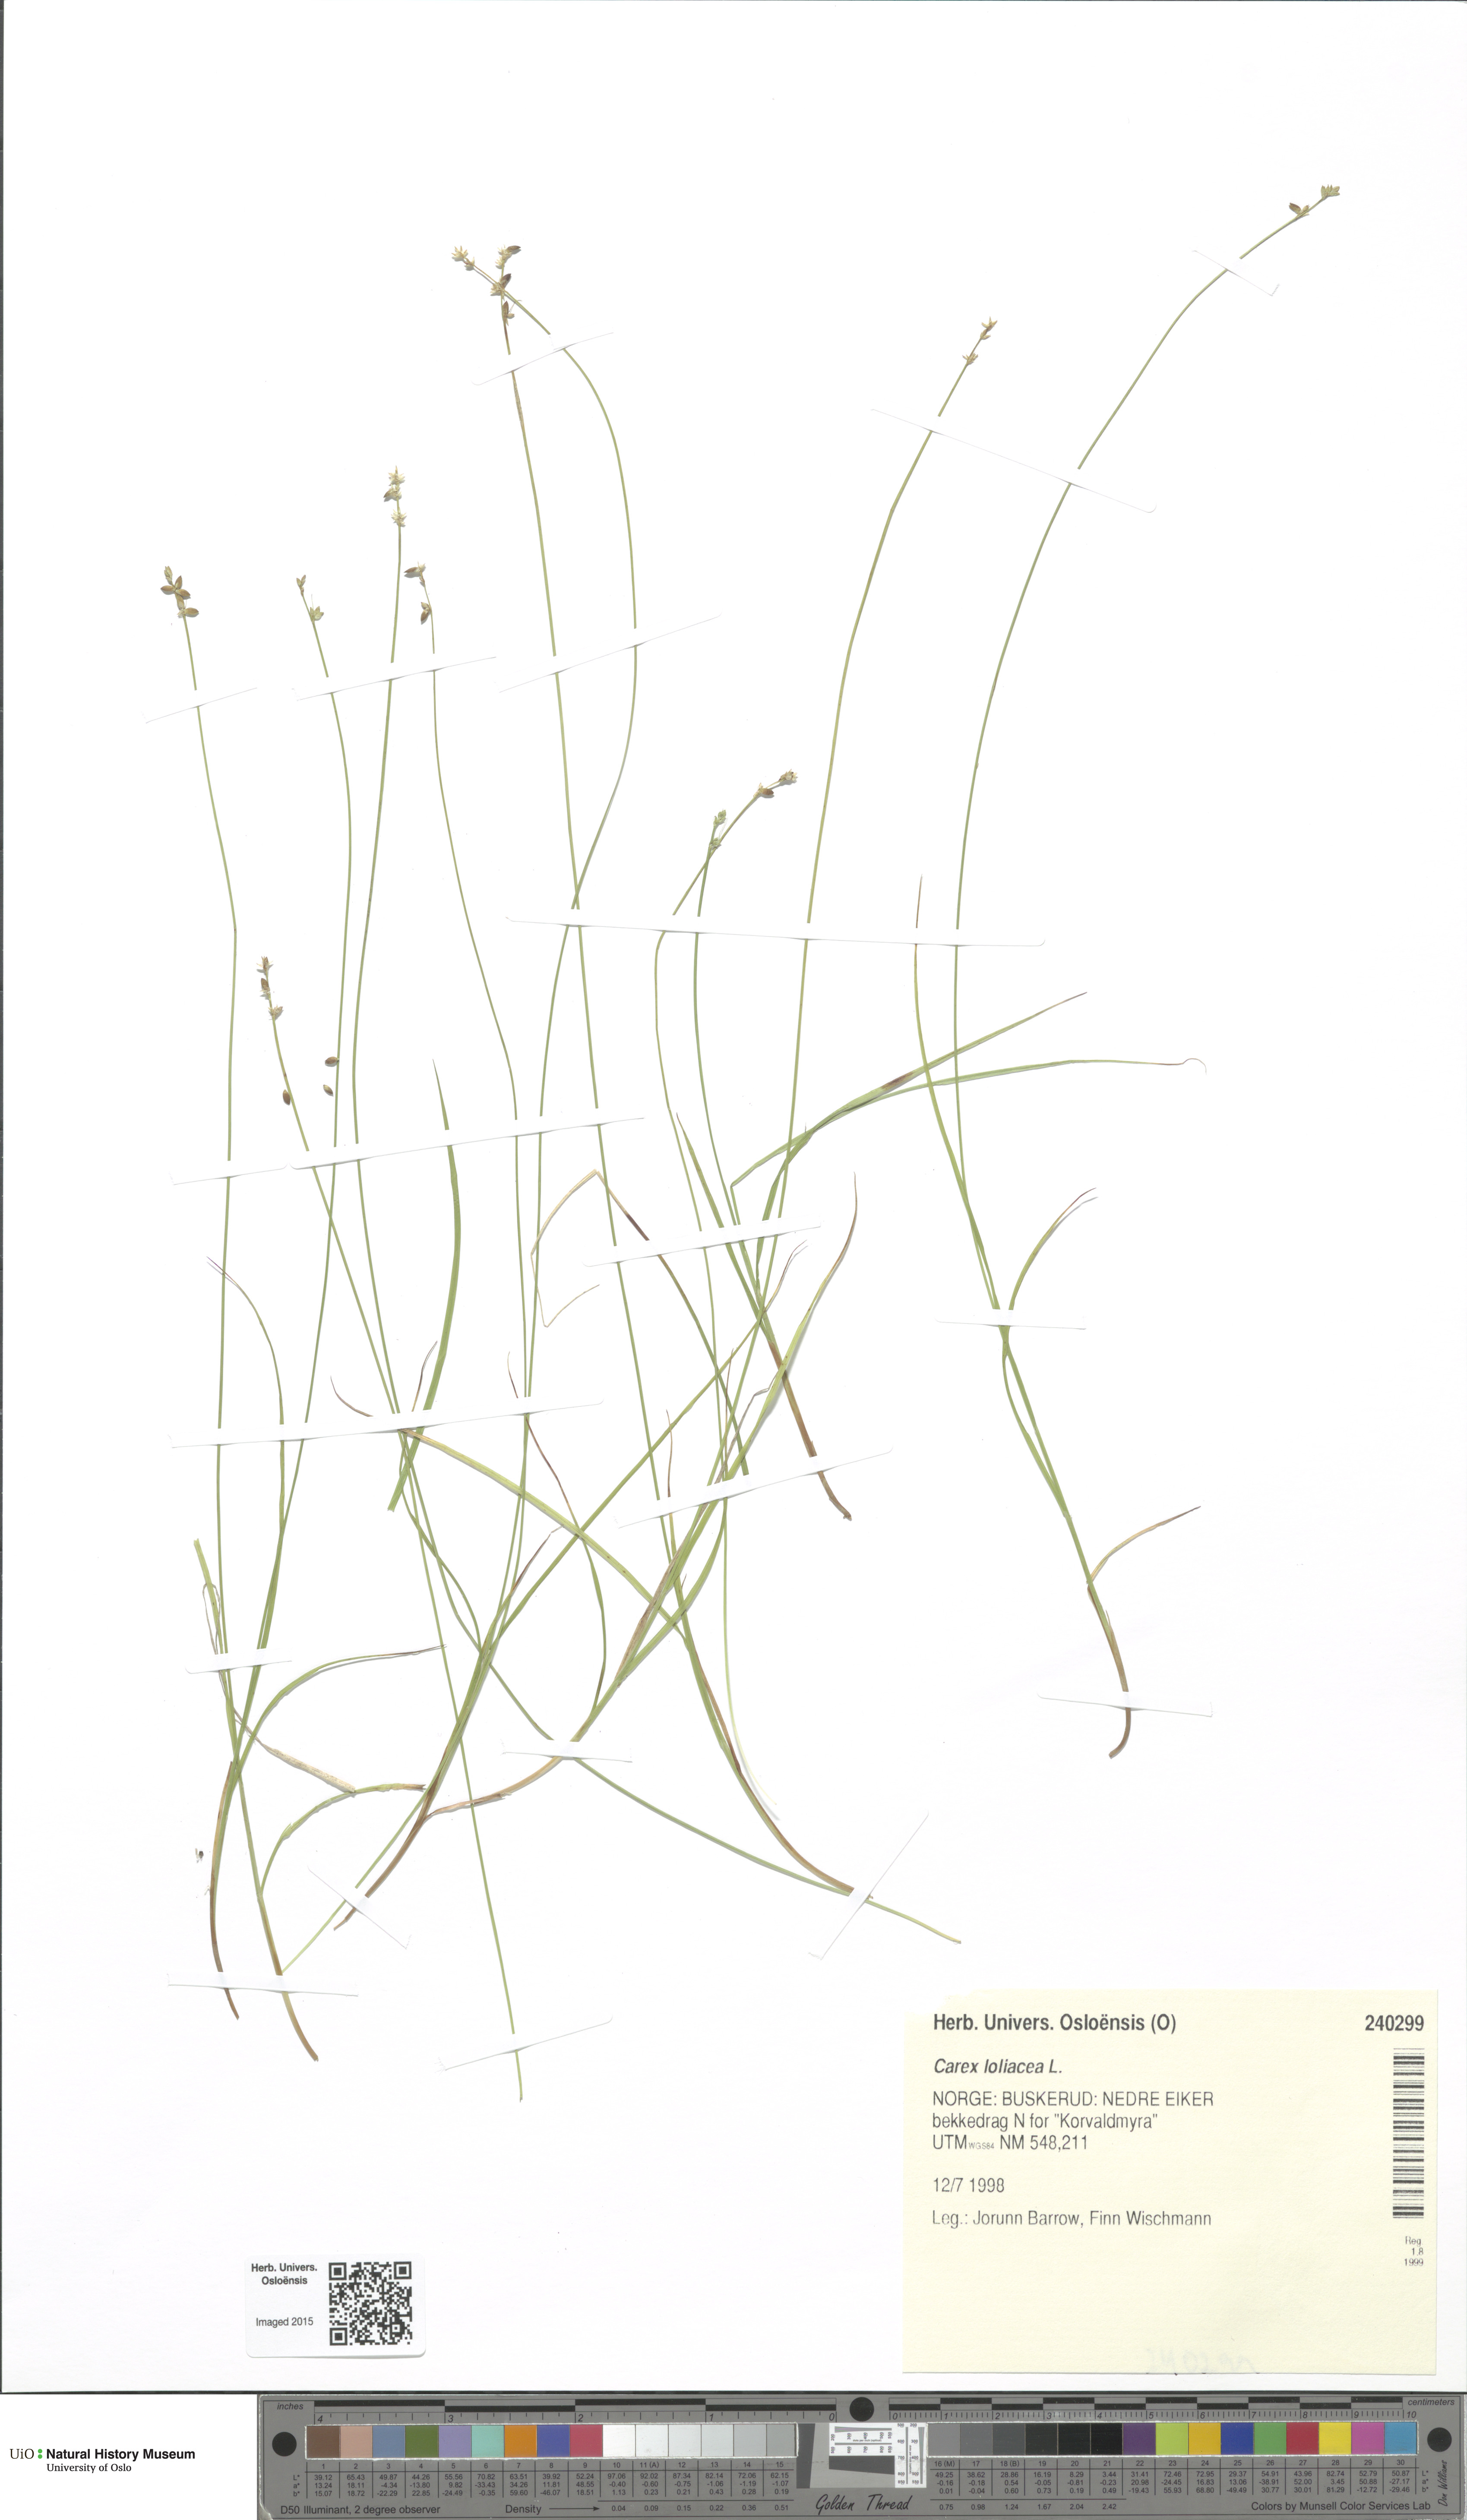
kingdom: Plantae
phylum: Tracheophyta
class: Liliopsida
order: Poales
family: Cyperaceae
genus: Carex
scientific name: Carex loliacea
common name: Ryegrass sedge
